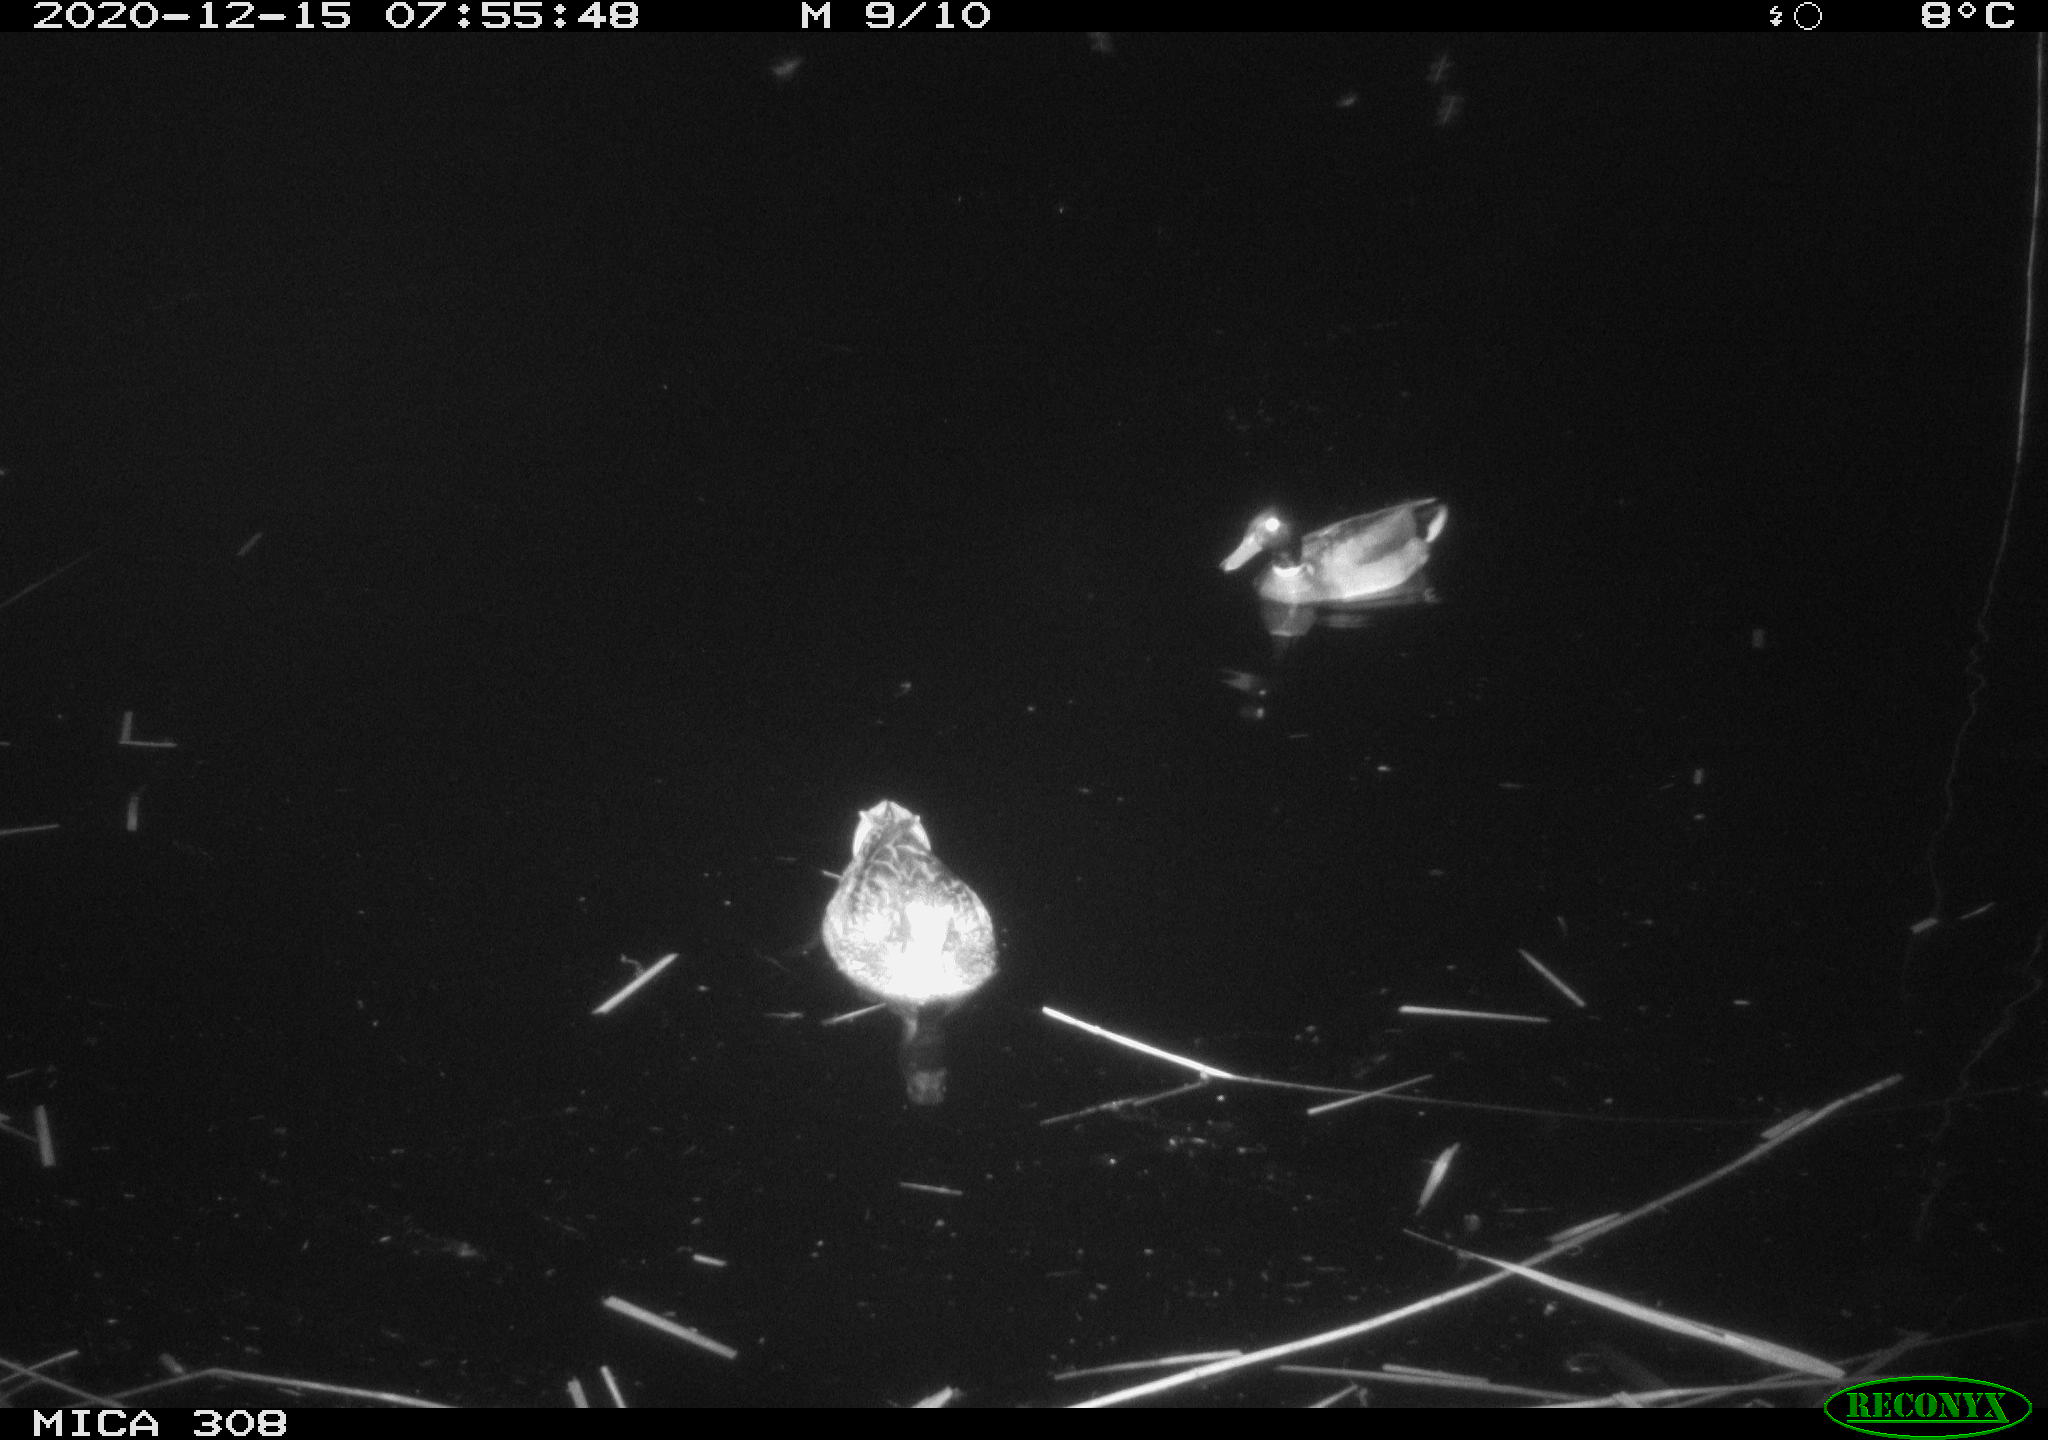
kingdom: Animalia
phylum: Chordata
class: Aves
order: Gruiformes
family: Rallidae
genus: Gallinula
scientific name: Gallinula chloropus
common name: Common moorhen
